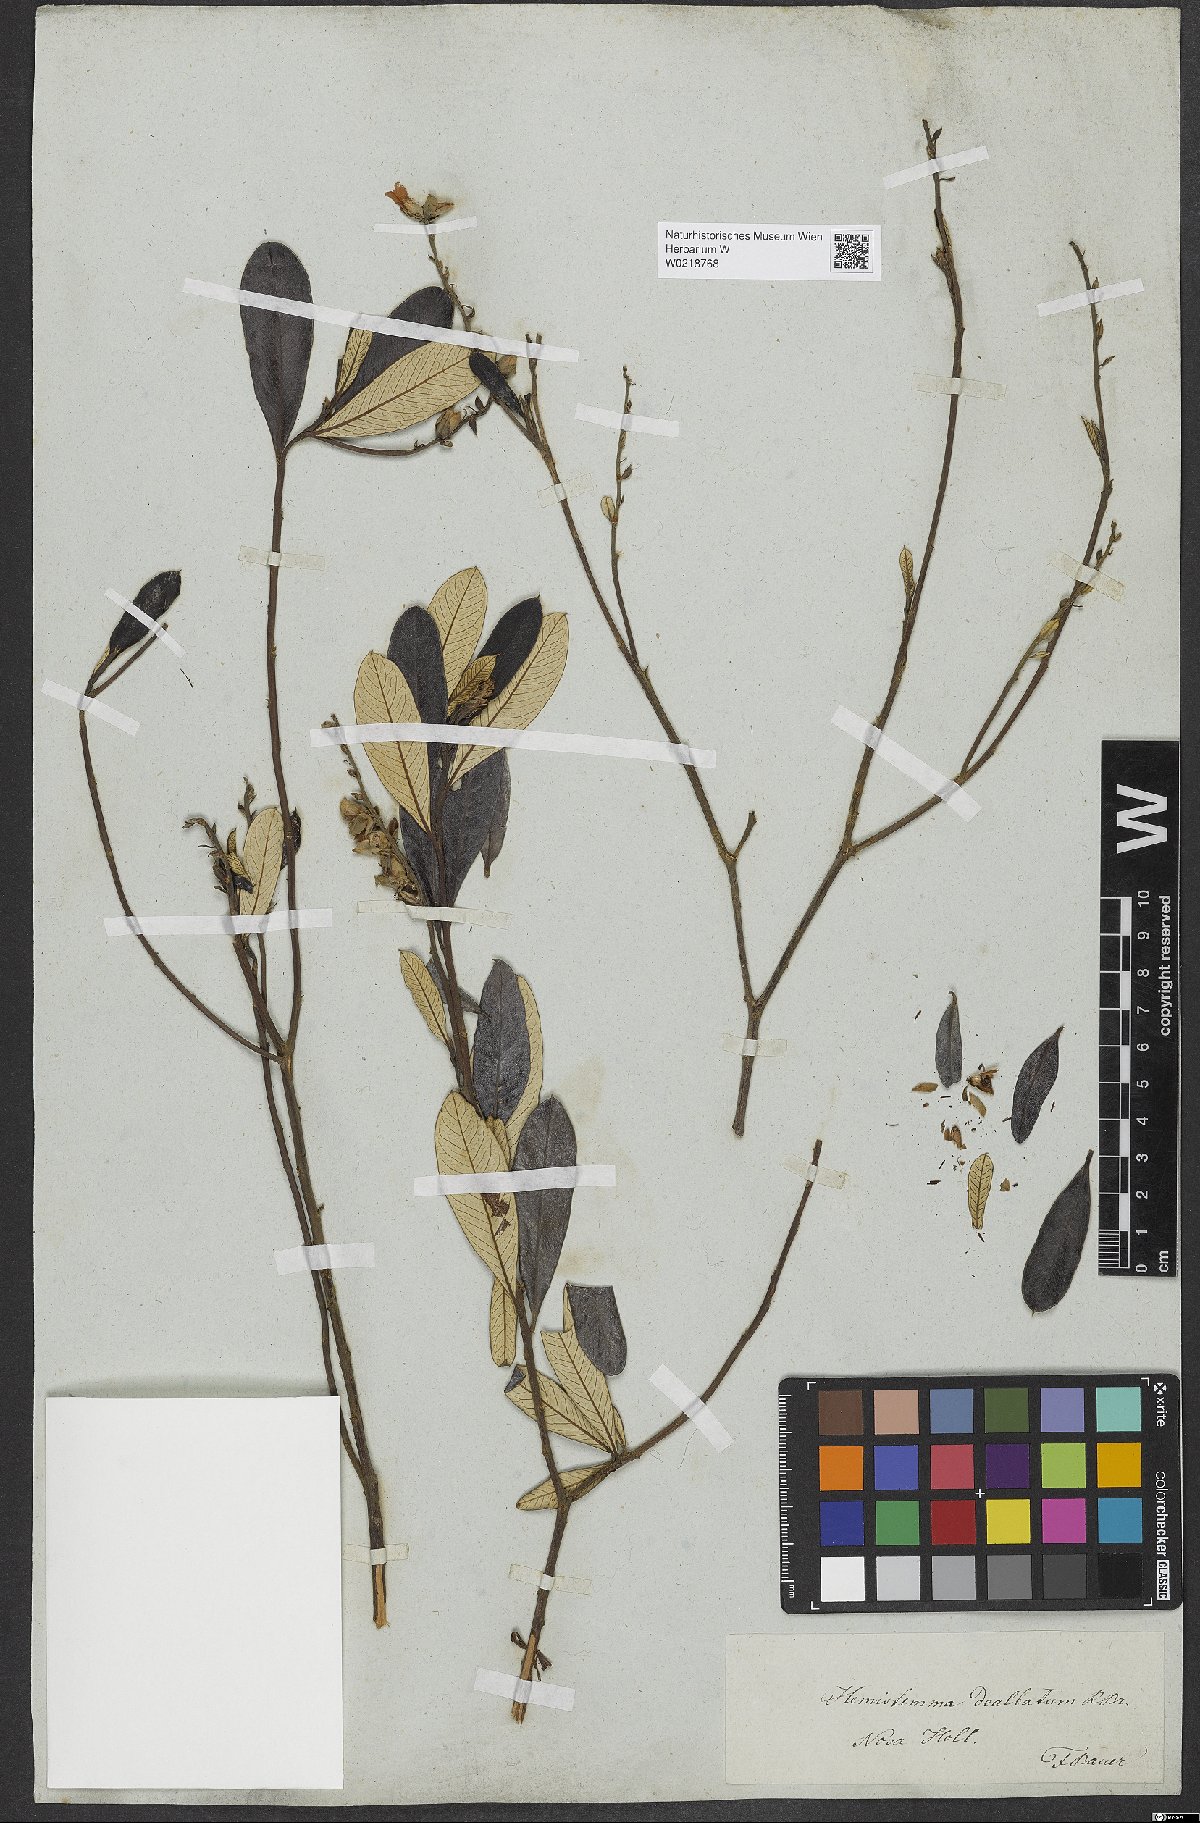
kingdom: Plantae
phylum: Tracheophyta
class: Magnoliopsida
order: Dilleniales
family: Dilleniaceae
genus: Hibbertia
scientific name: Hibbertia dealbata
